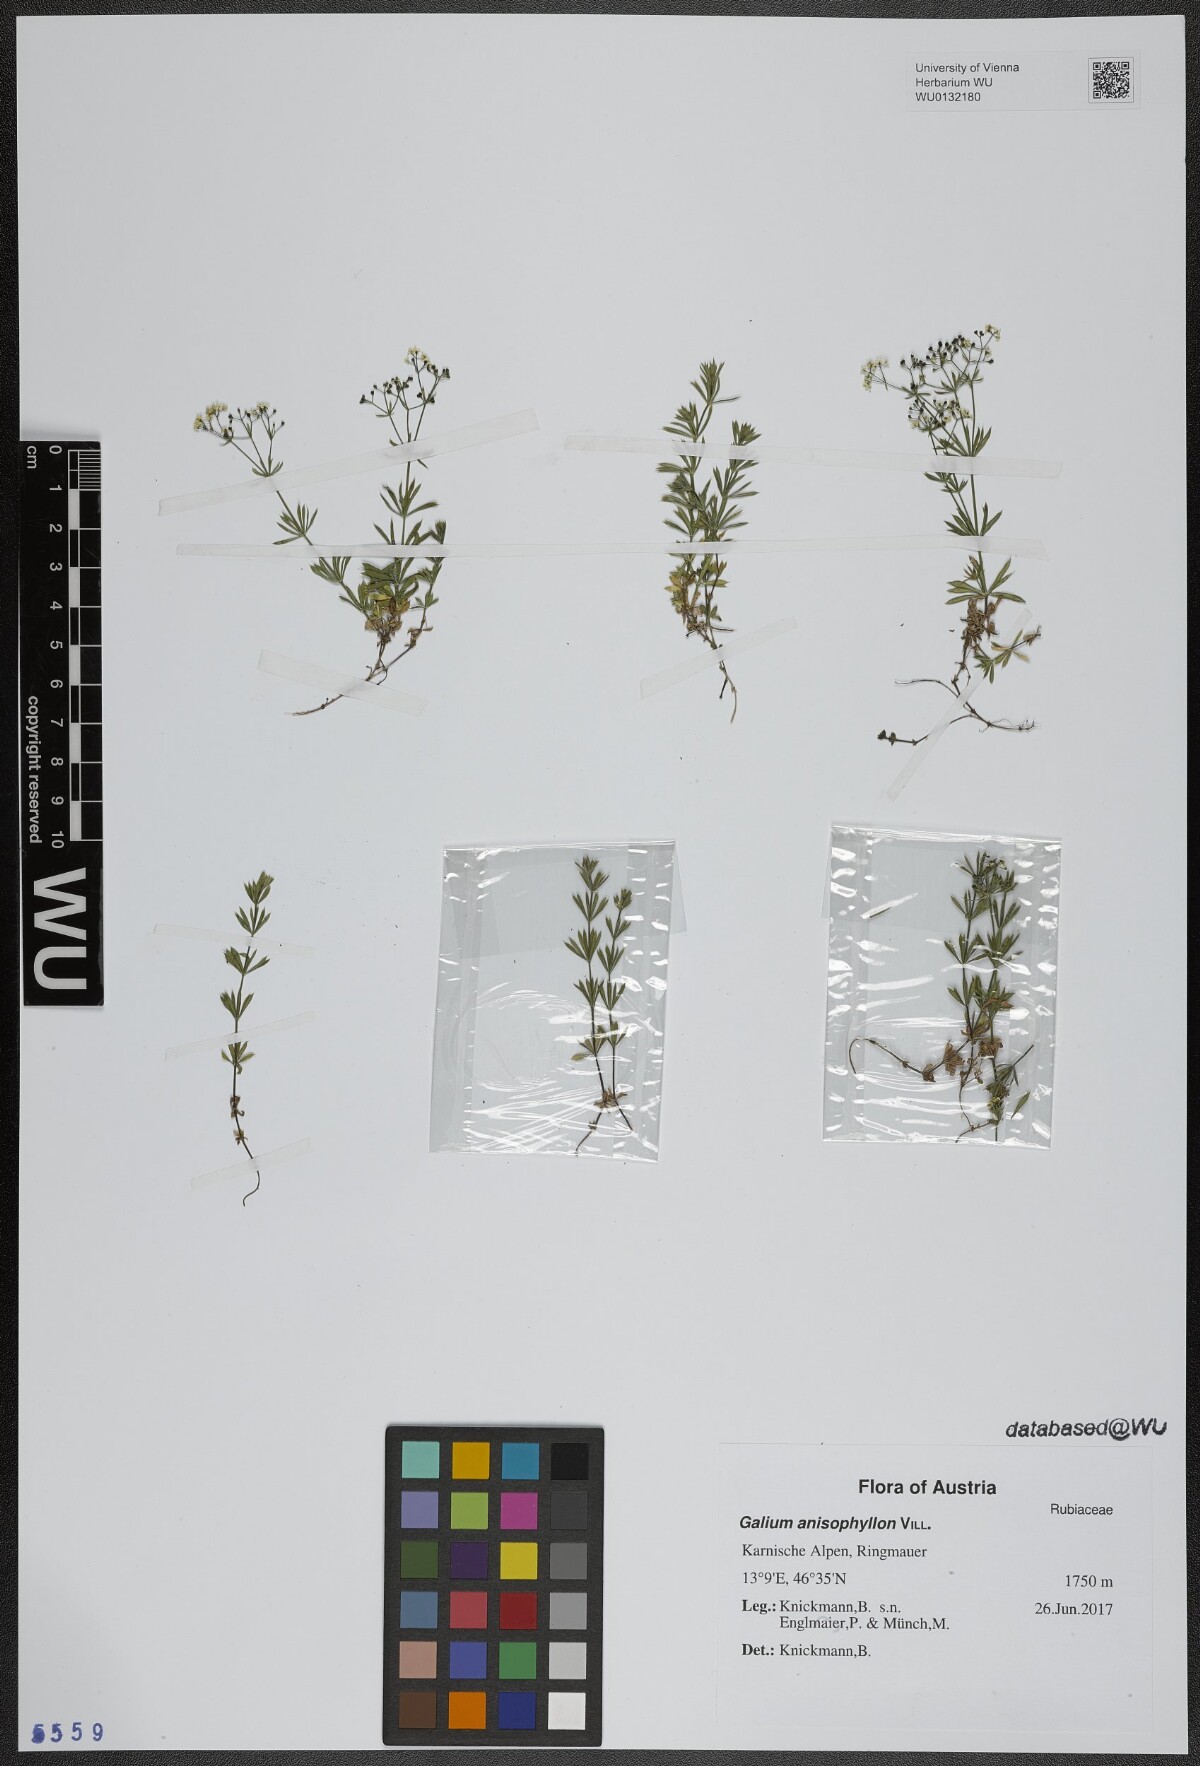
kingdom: Plantae
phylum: Tracheophyta
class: Magnoliopsida
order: Gentianales
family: Rubiaceae
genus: Galium
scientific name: Galium anisophyllon
